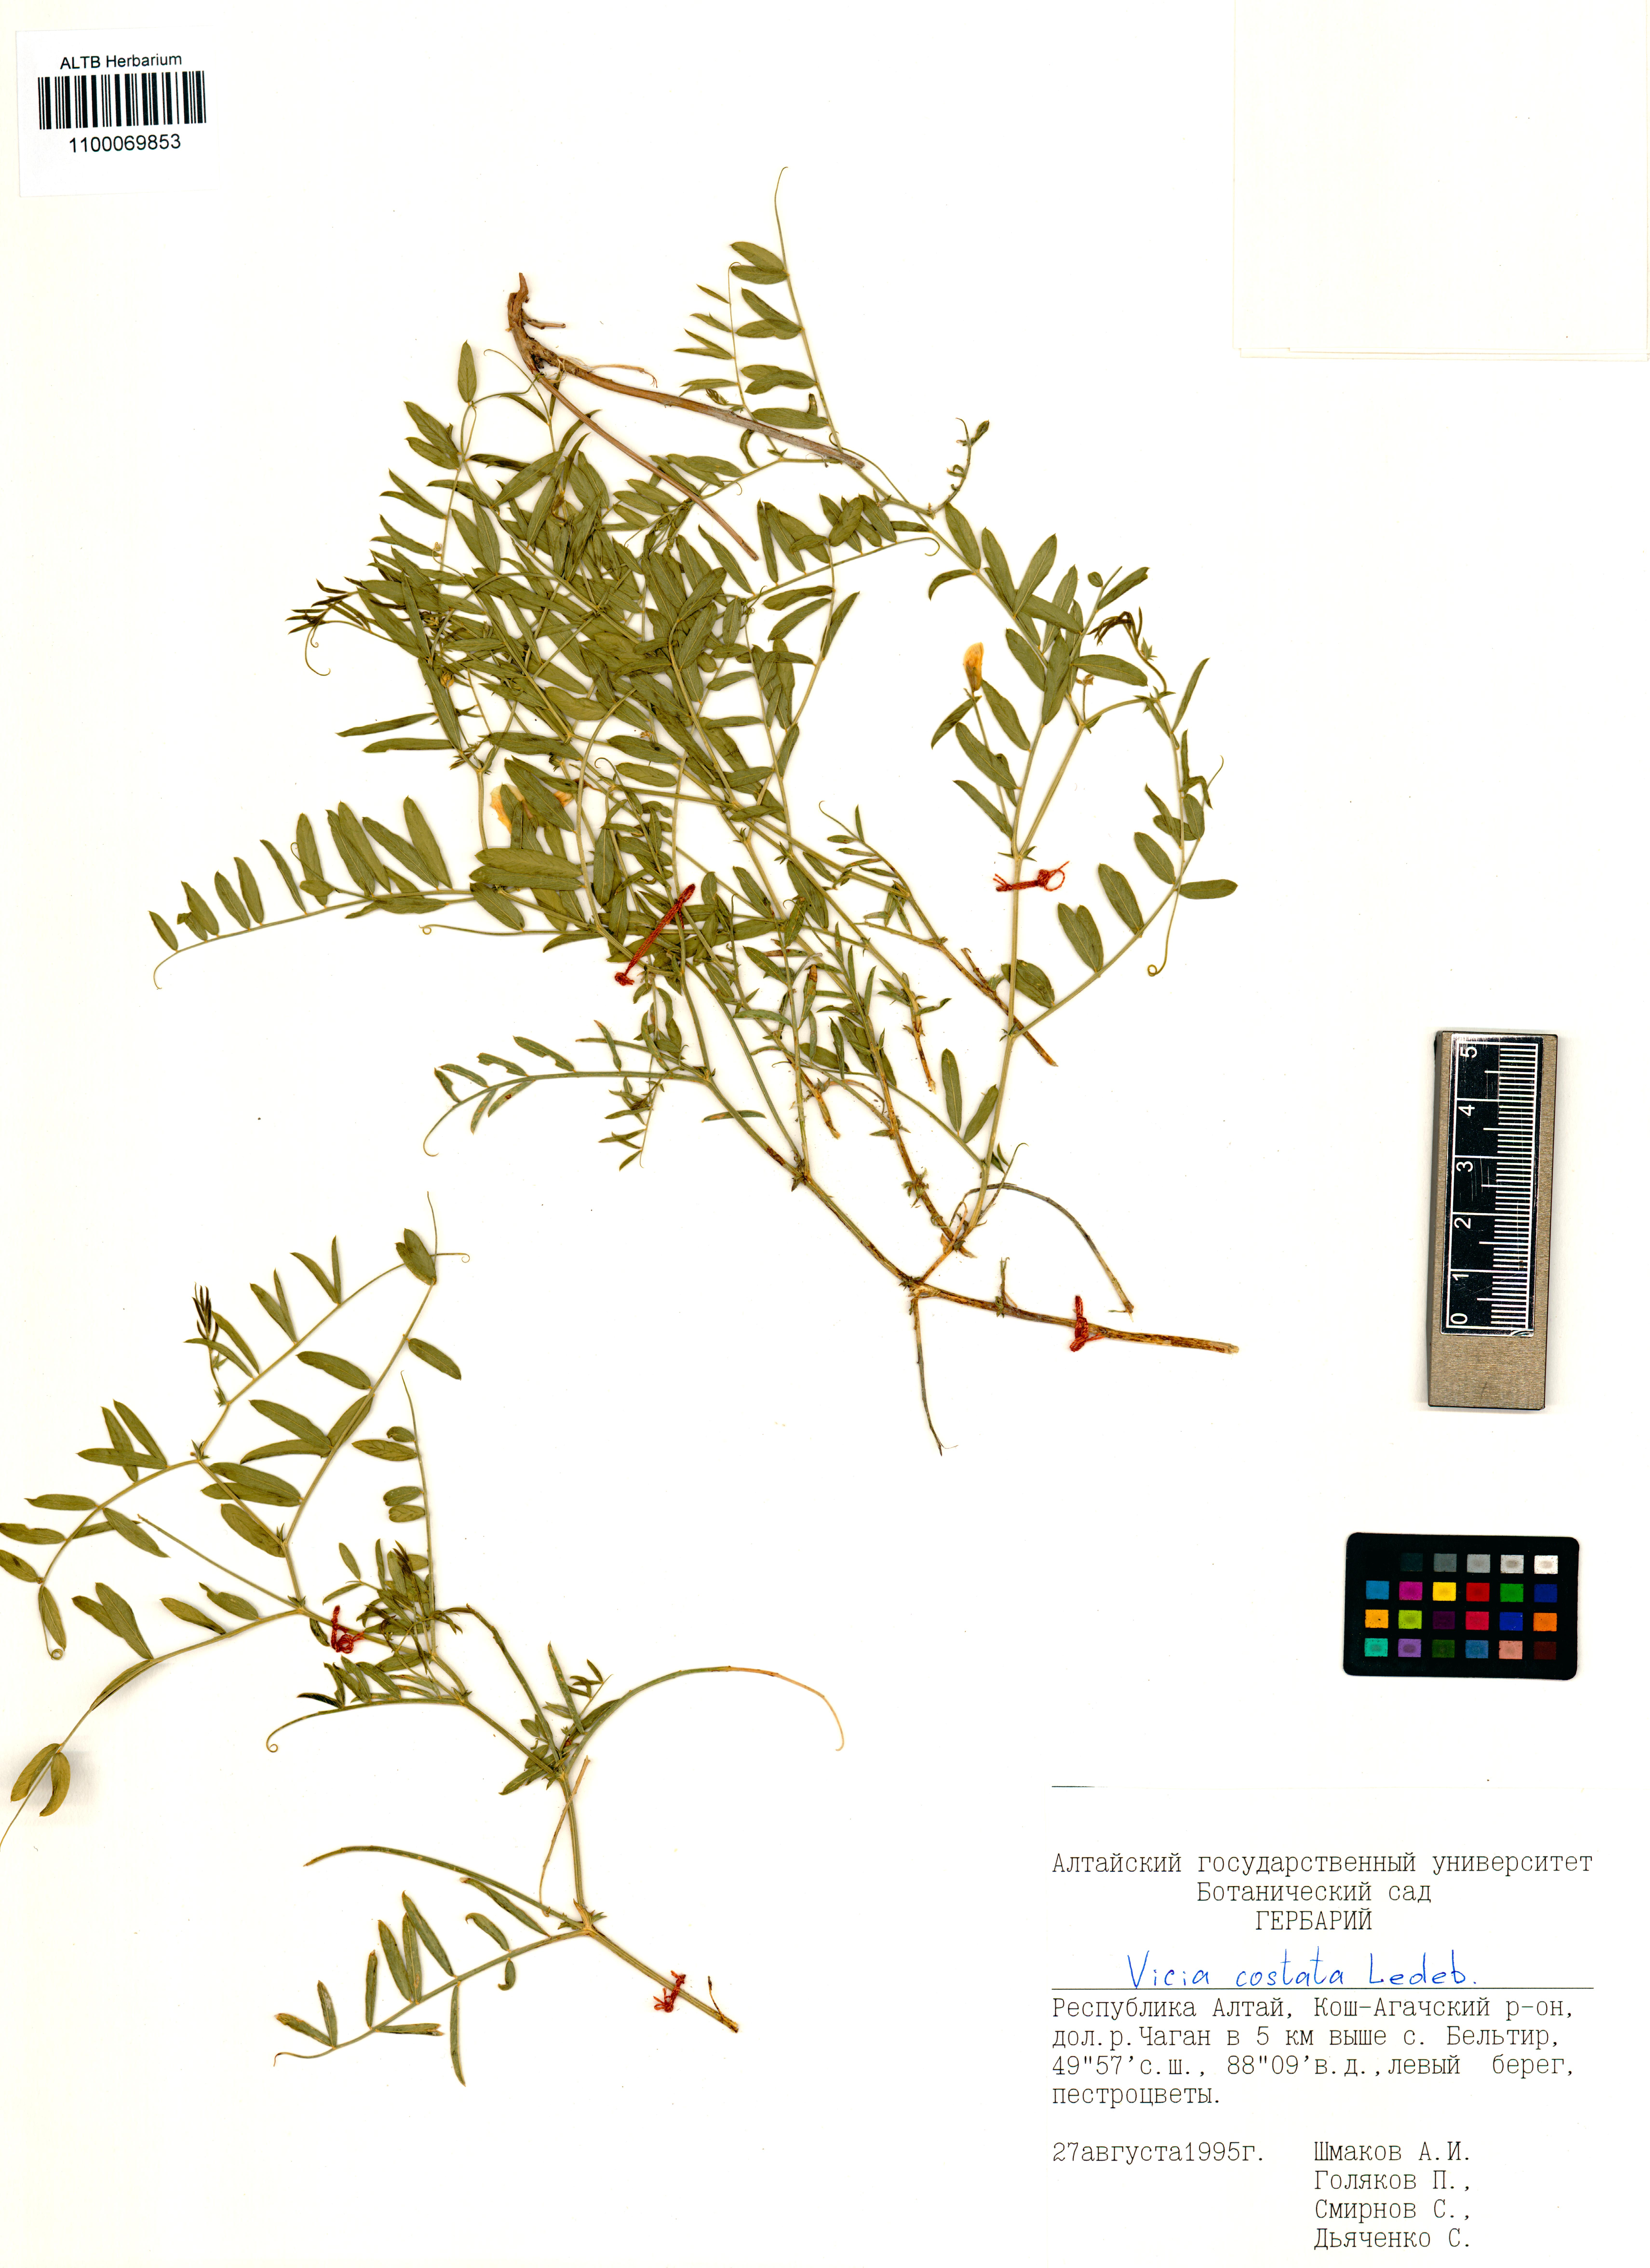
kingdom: Plantae
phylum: Tracheophyta
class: Magnoliopsida
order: Fabales
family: Fabaceae
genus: Vicia
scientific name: Vicia costata
